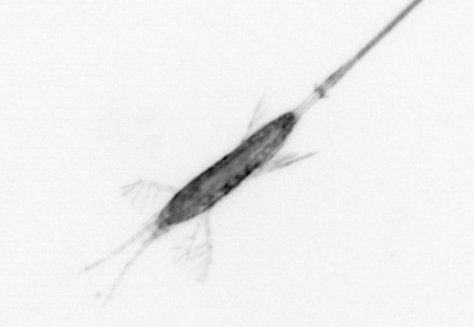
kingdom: Animalia
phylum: Arthropoda
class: Copepoda
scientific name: Copepoda
